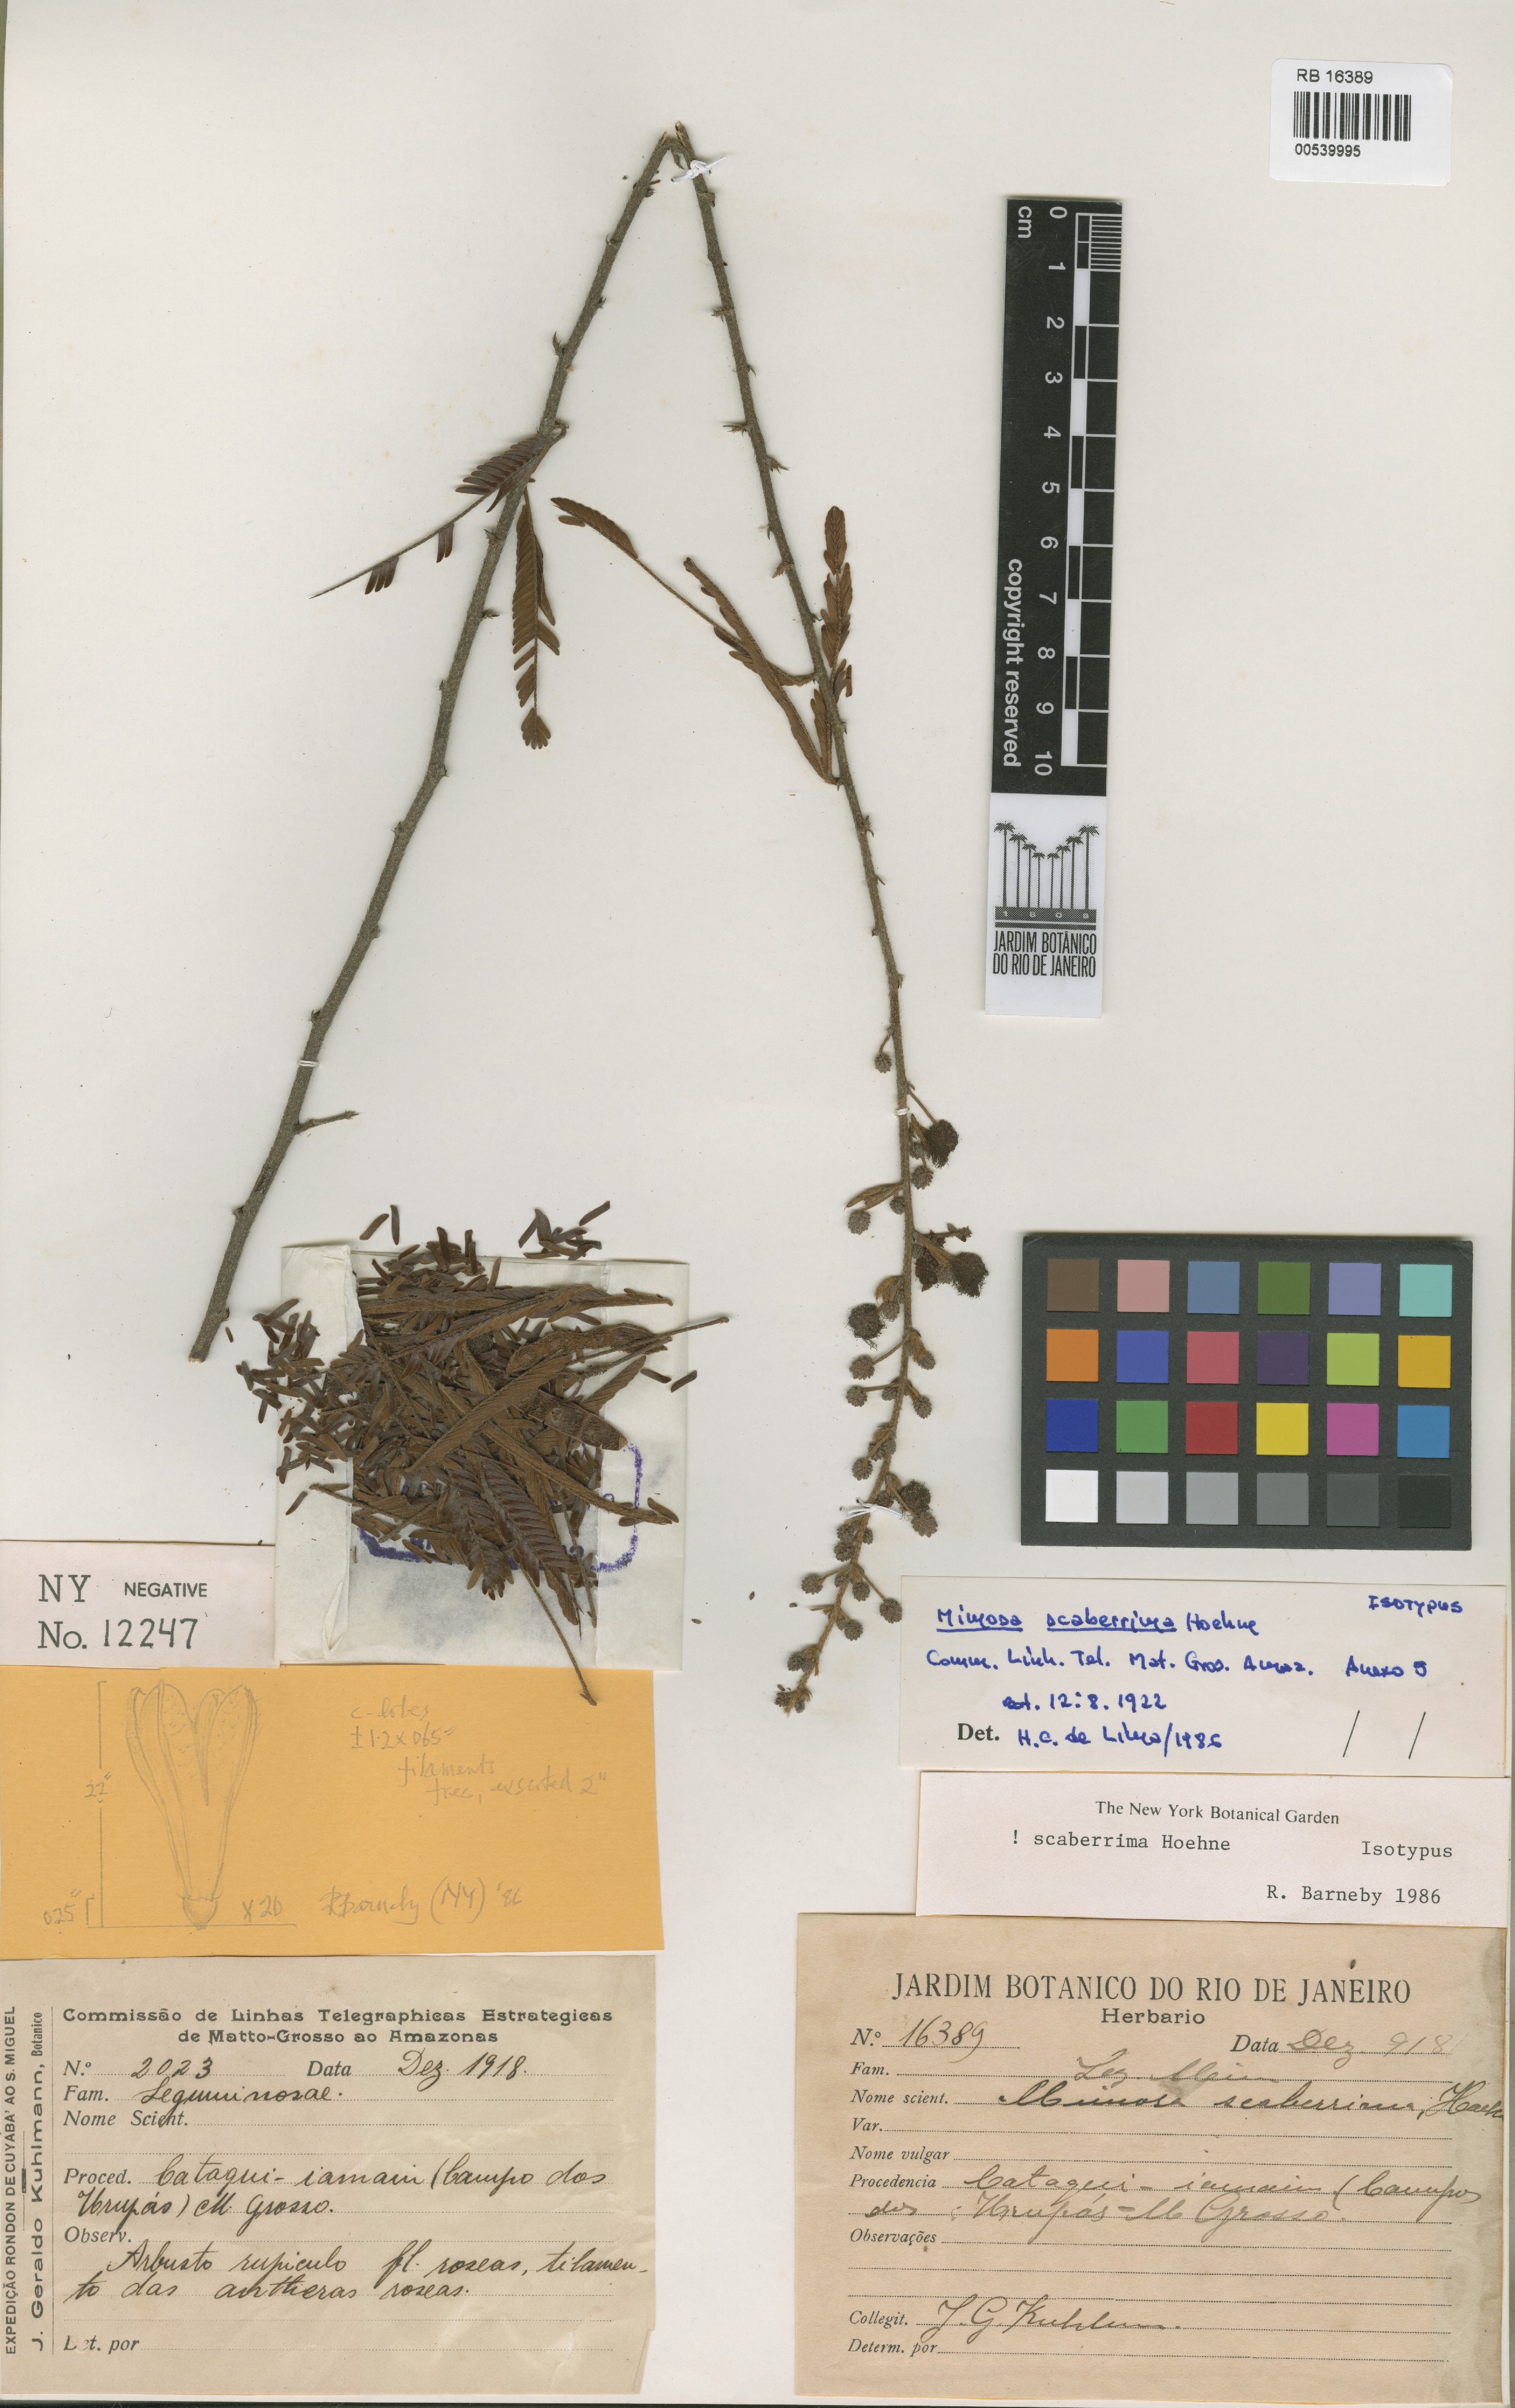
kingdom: Plantae
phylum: Tracheophyta
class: Magnoliopsida
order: Fabales
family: Fabaceae
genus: Mimosa
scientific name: Mimosa scaberrima
